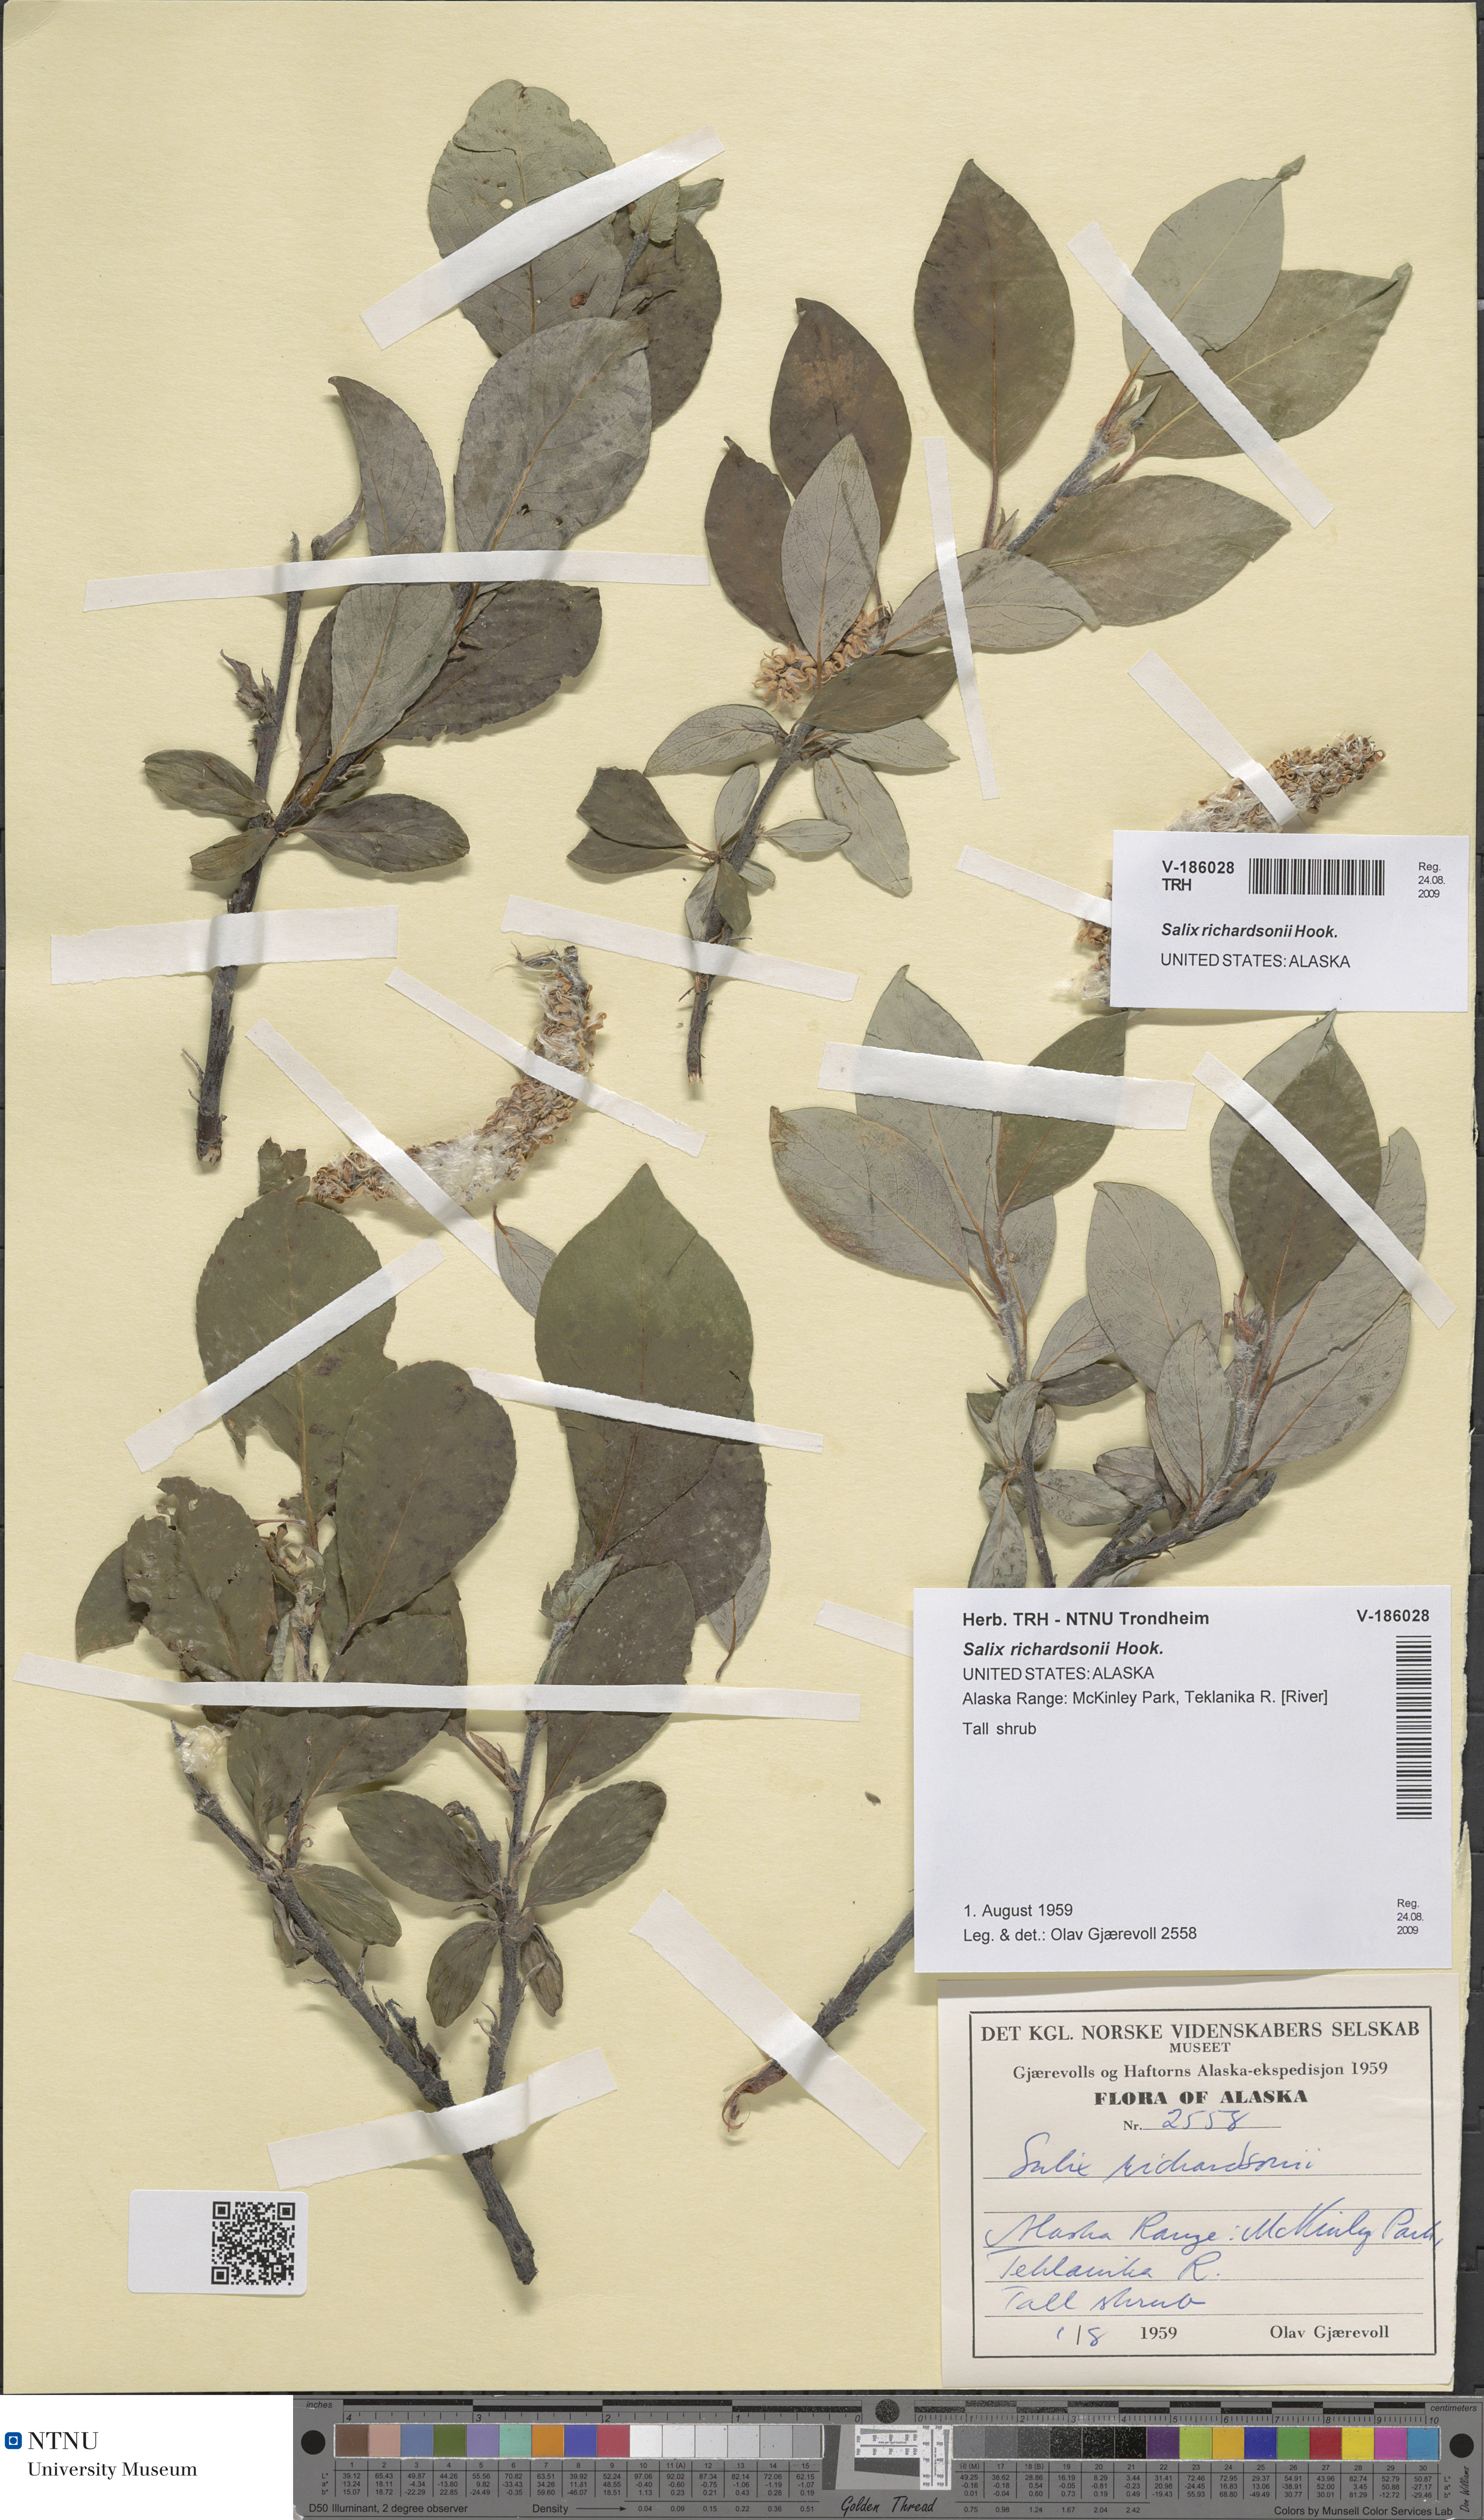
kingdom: Plantae
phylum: Tracheophyta
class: Magnoliopsida
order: Malpighiales
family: Salicaceae
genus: Salix
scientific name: Salix richardsonii
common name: Richardson’s willow
